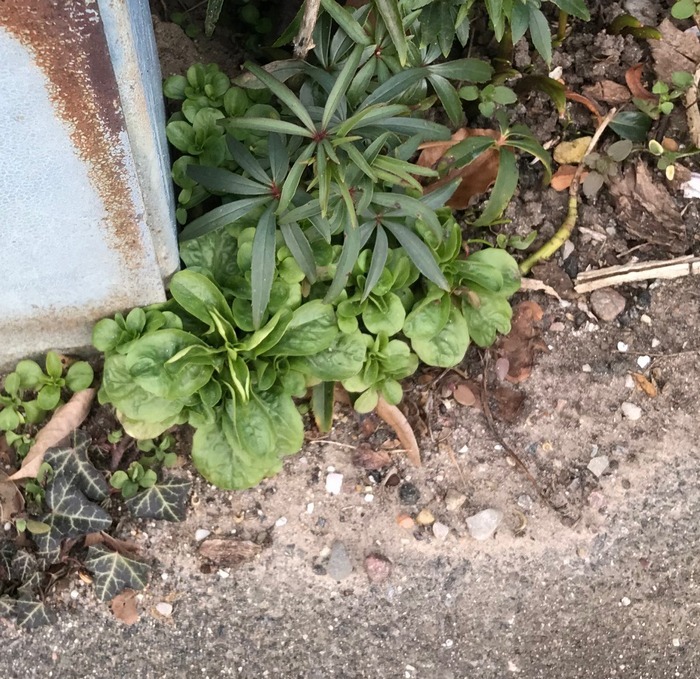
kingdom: Plantae
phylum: Tracheophyta
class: Magnoliopsida
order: Dipsacales
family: Caprifoliaceae
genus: Valerianella
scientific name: Valerianella locusta
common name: Tandfri vårsalat
